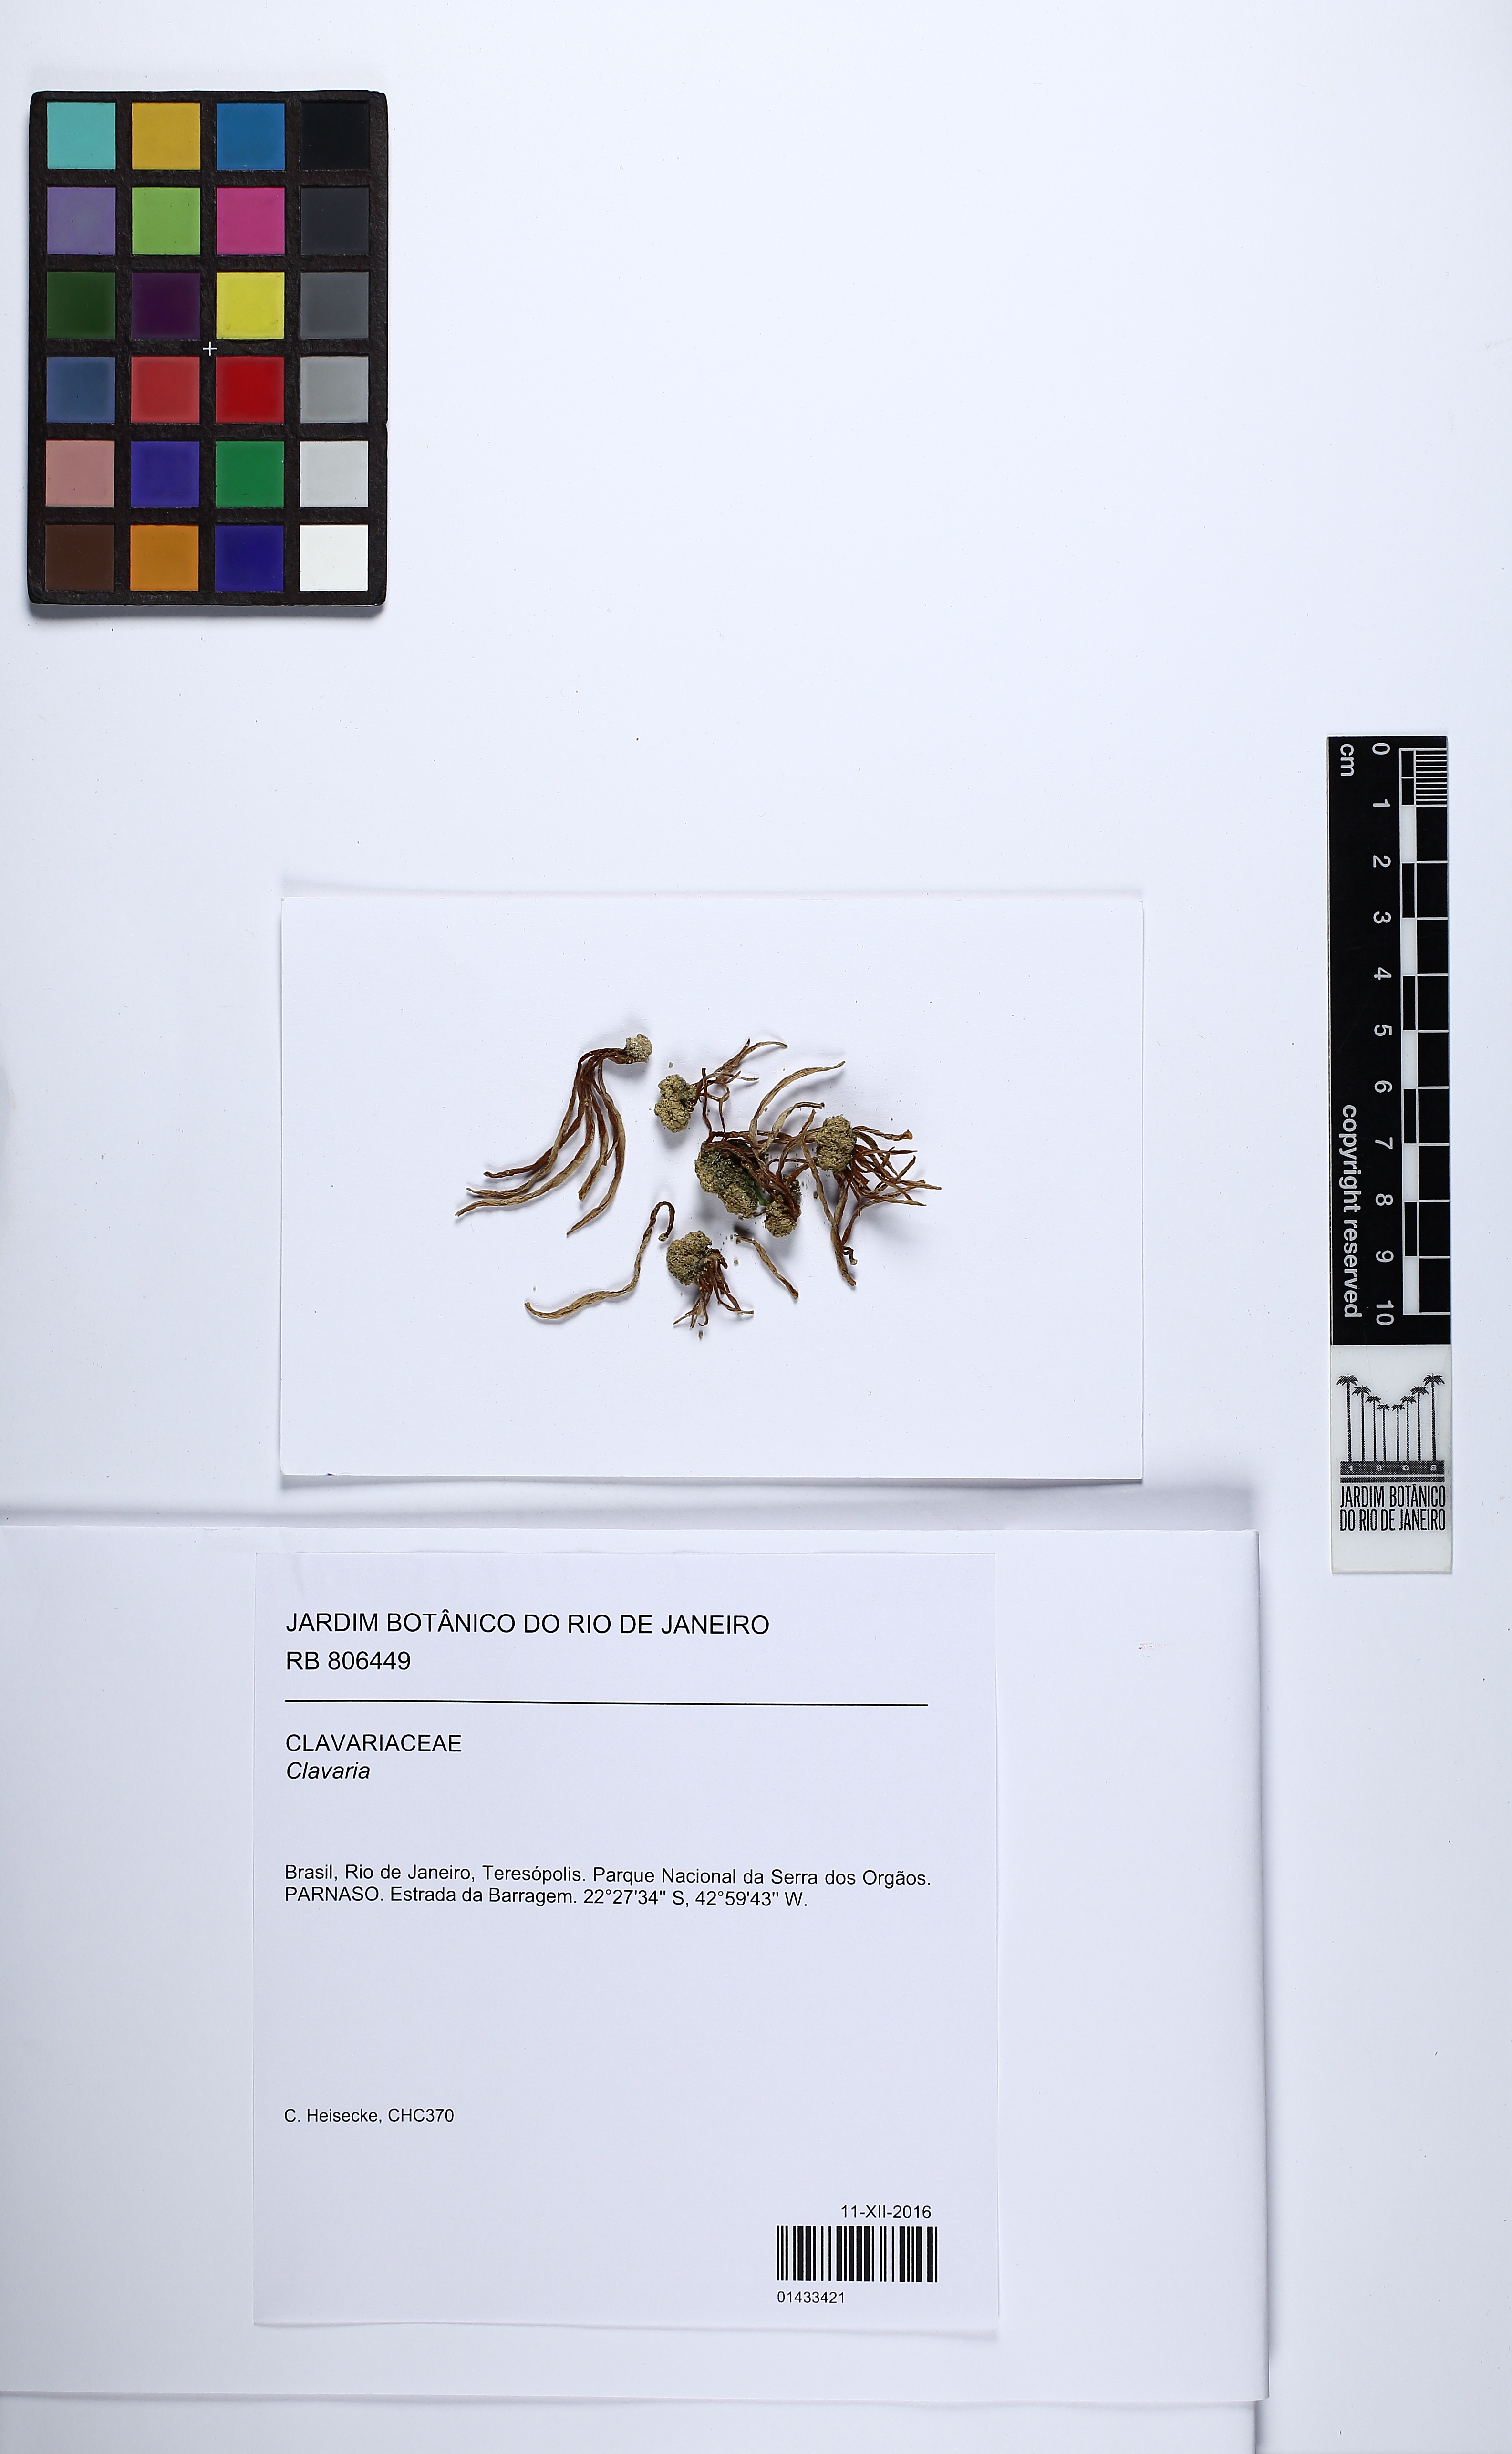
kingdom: Fungi
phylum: Basidiomycota
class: Agaricomycetes
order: Agaricales
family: Clavariaceae
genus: Clavaria
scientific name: Clavaria
